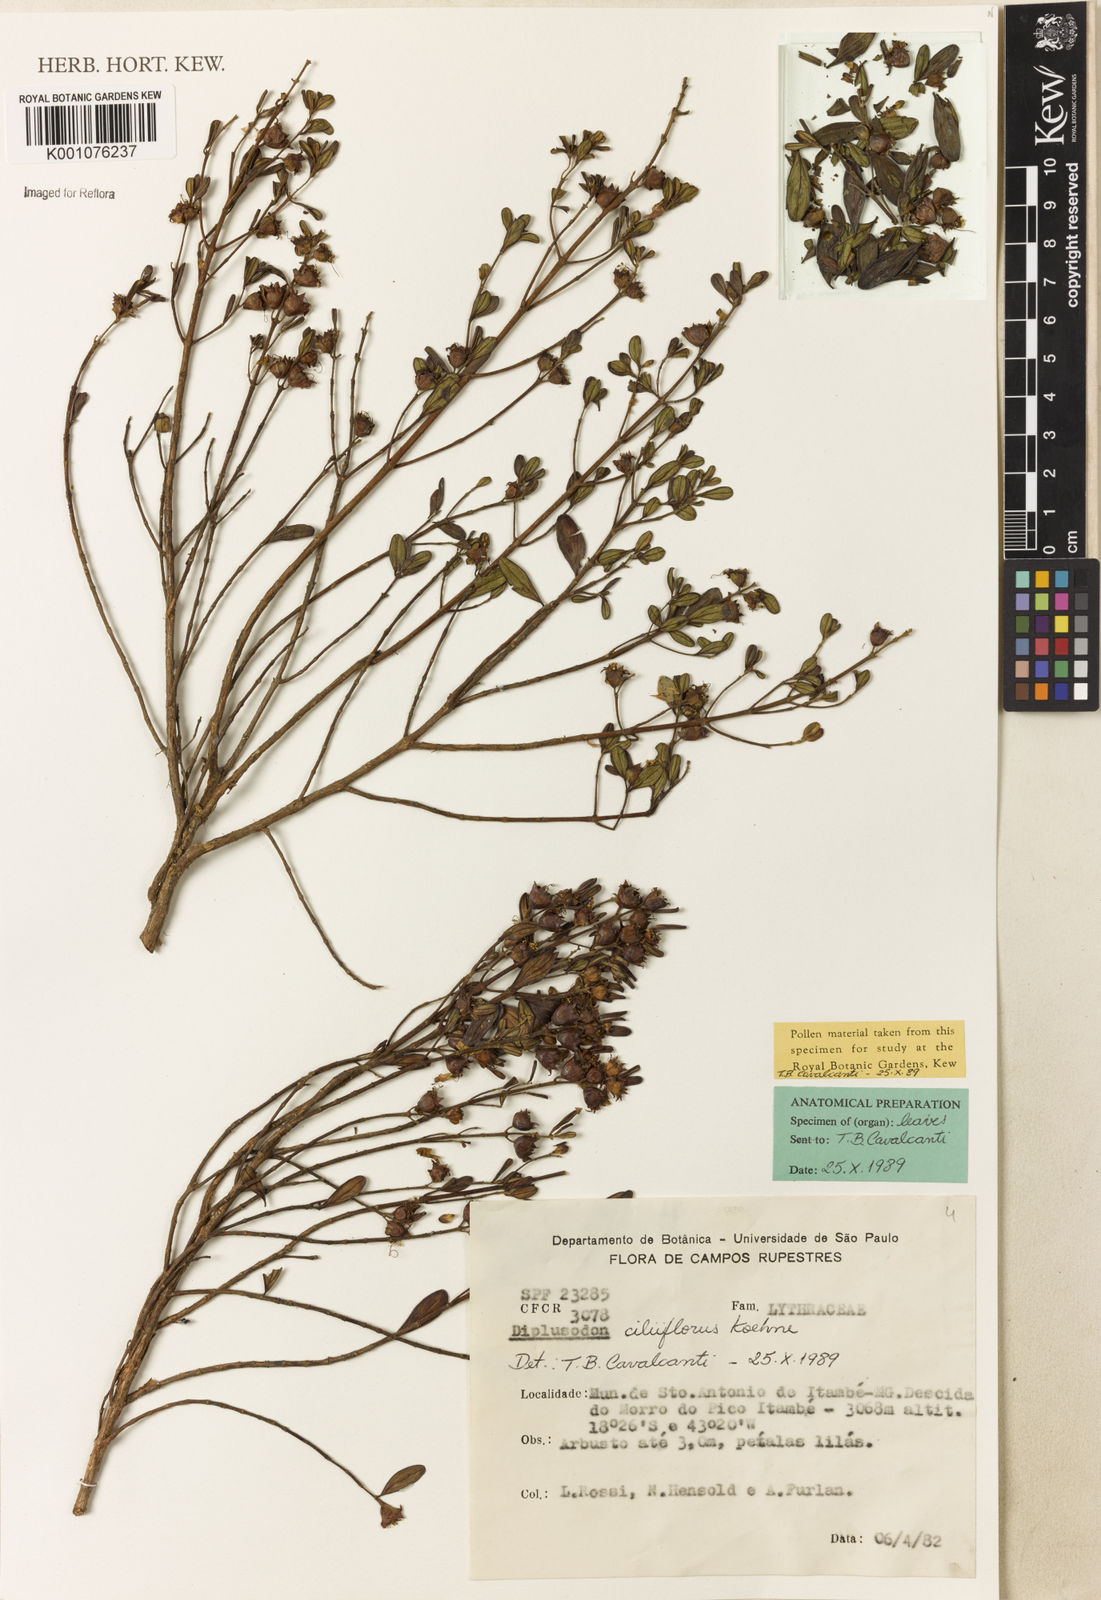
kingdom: Plantae
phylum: Tracheophyta
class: Magnoliopsida
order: Myrtales
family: Lythraceae
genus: Diplusodon
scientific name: Diplusodon ciliiflorus
